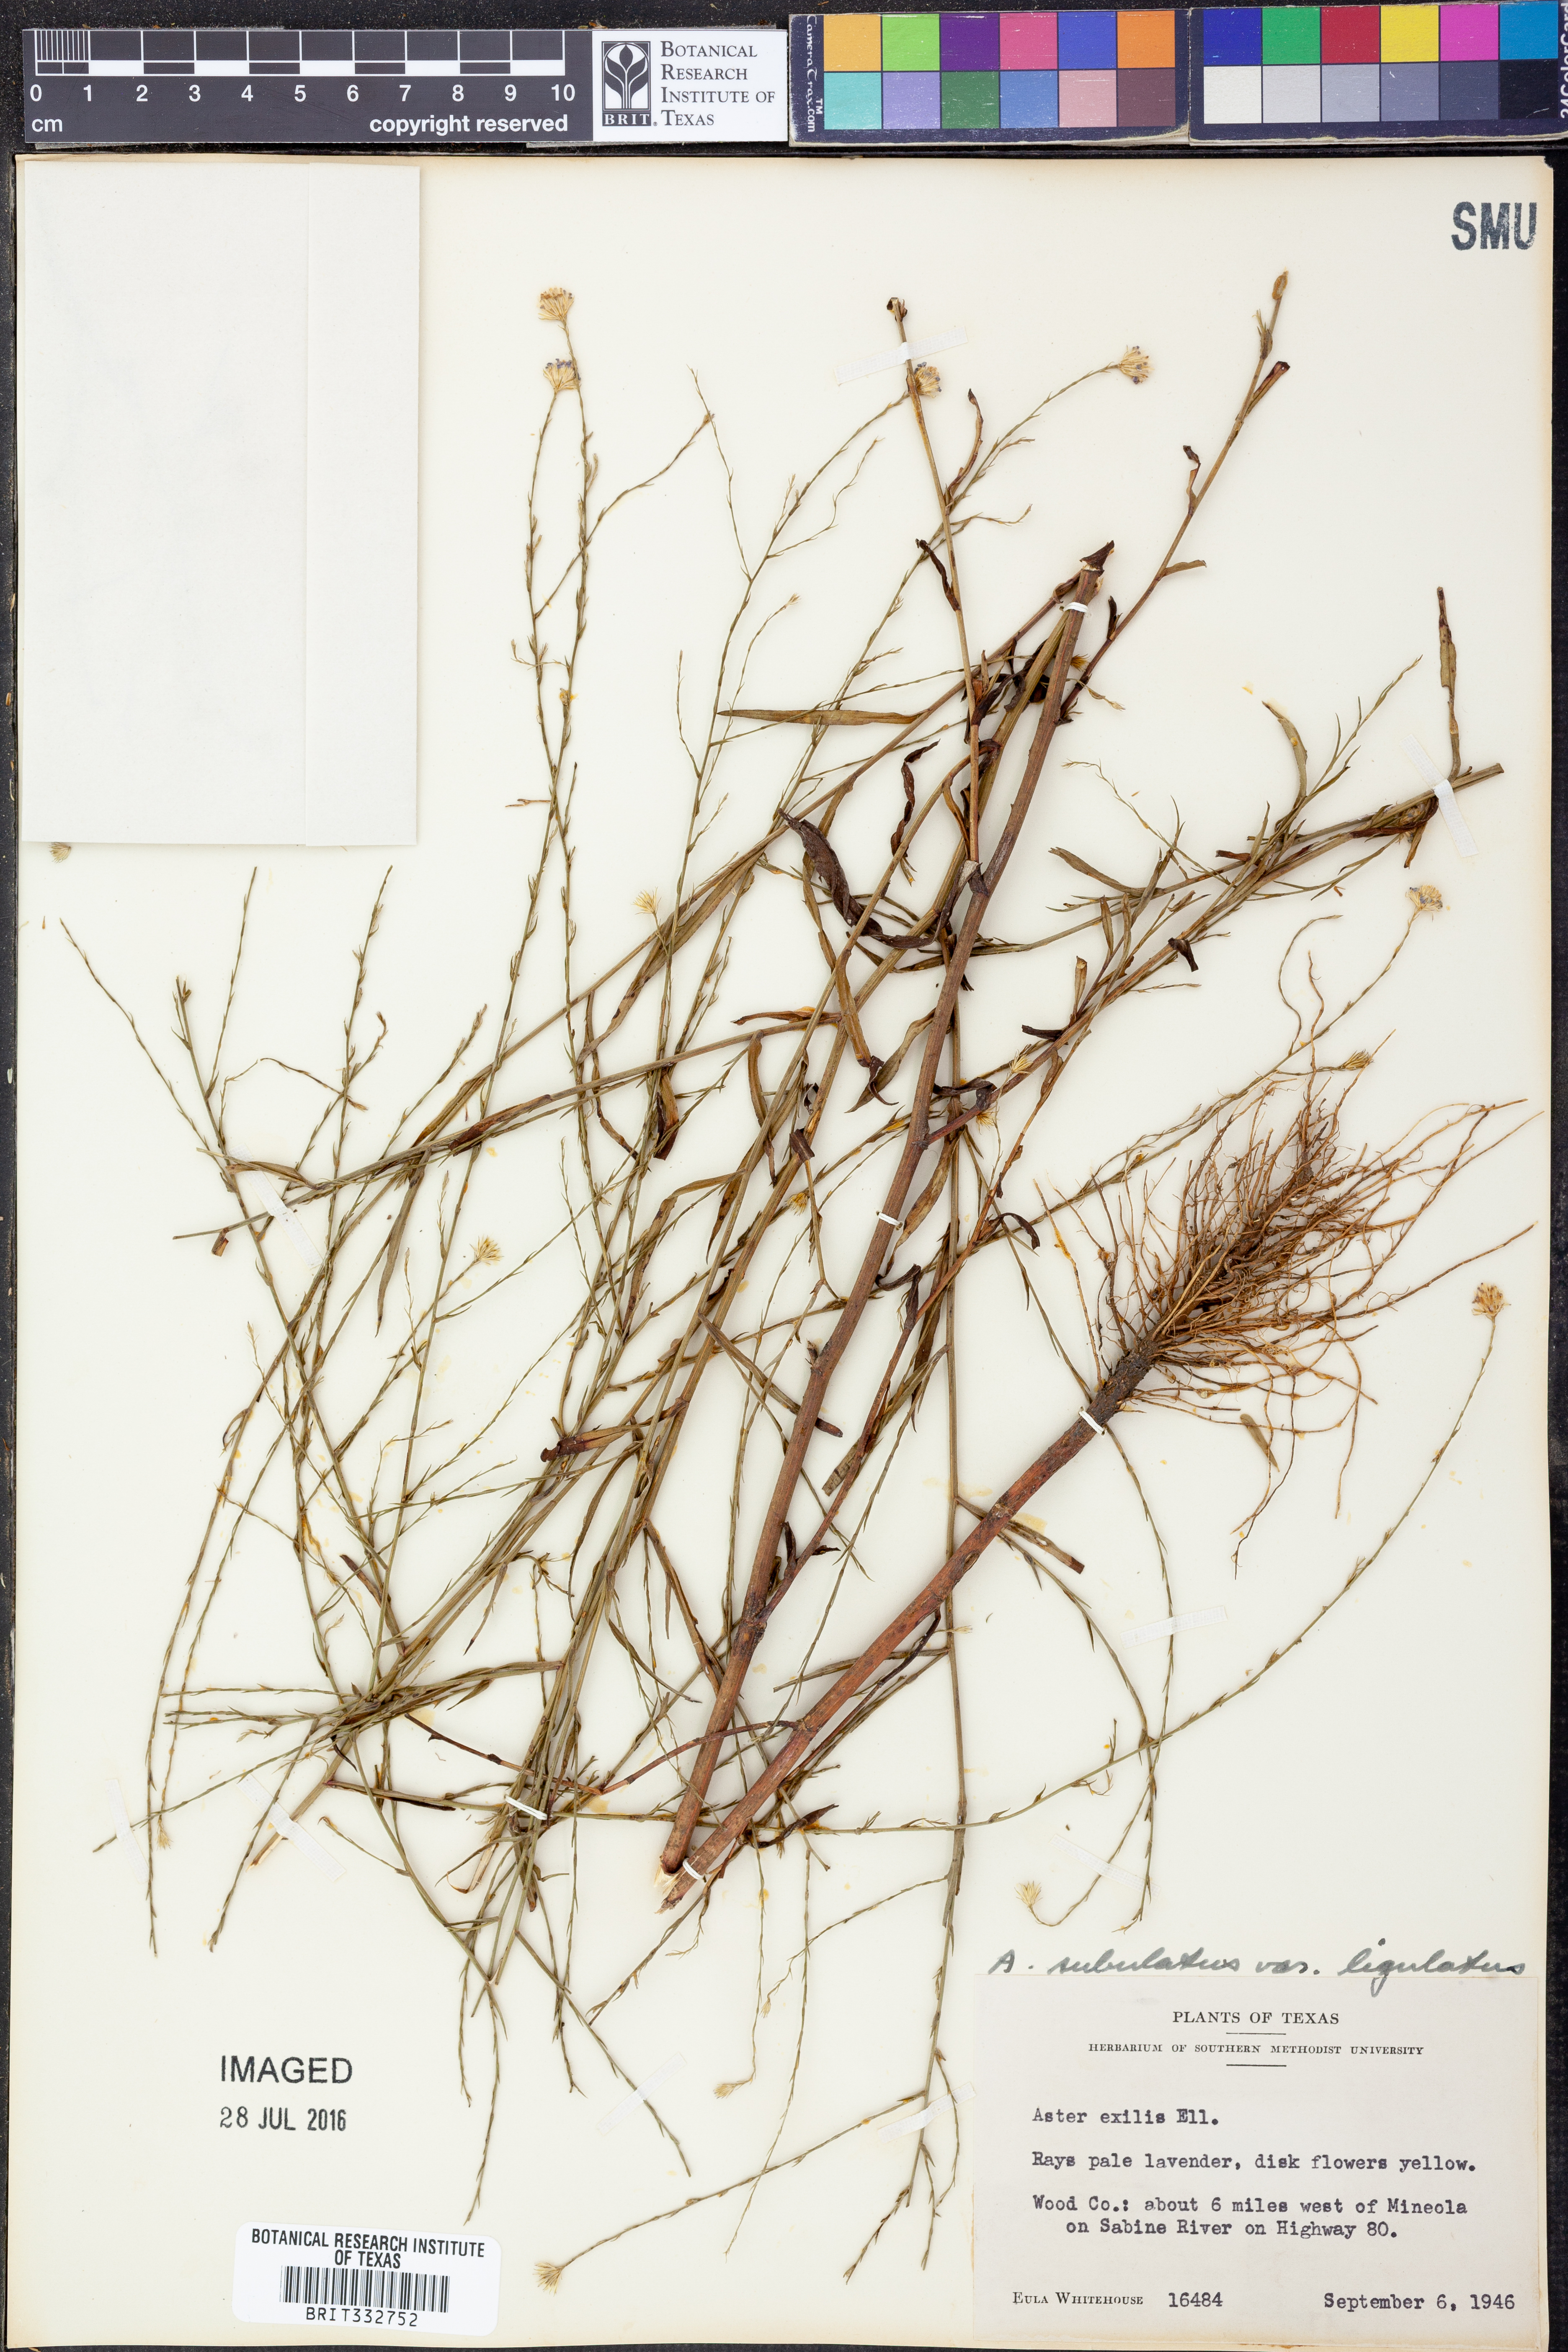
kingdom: Plantae
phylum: Tracheophyta
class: Magnoliopsida
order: Asterales
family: Asteraceae
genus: Symphyotrichum
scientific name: Symphyotrichum divaricatum
